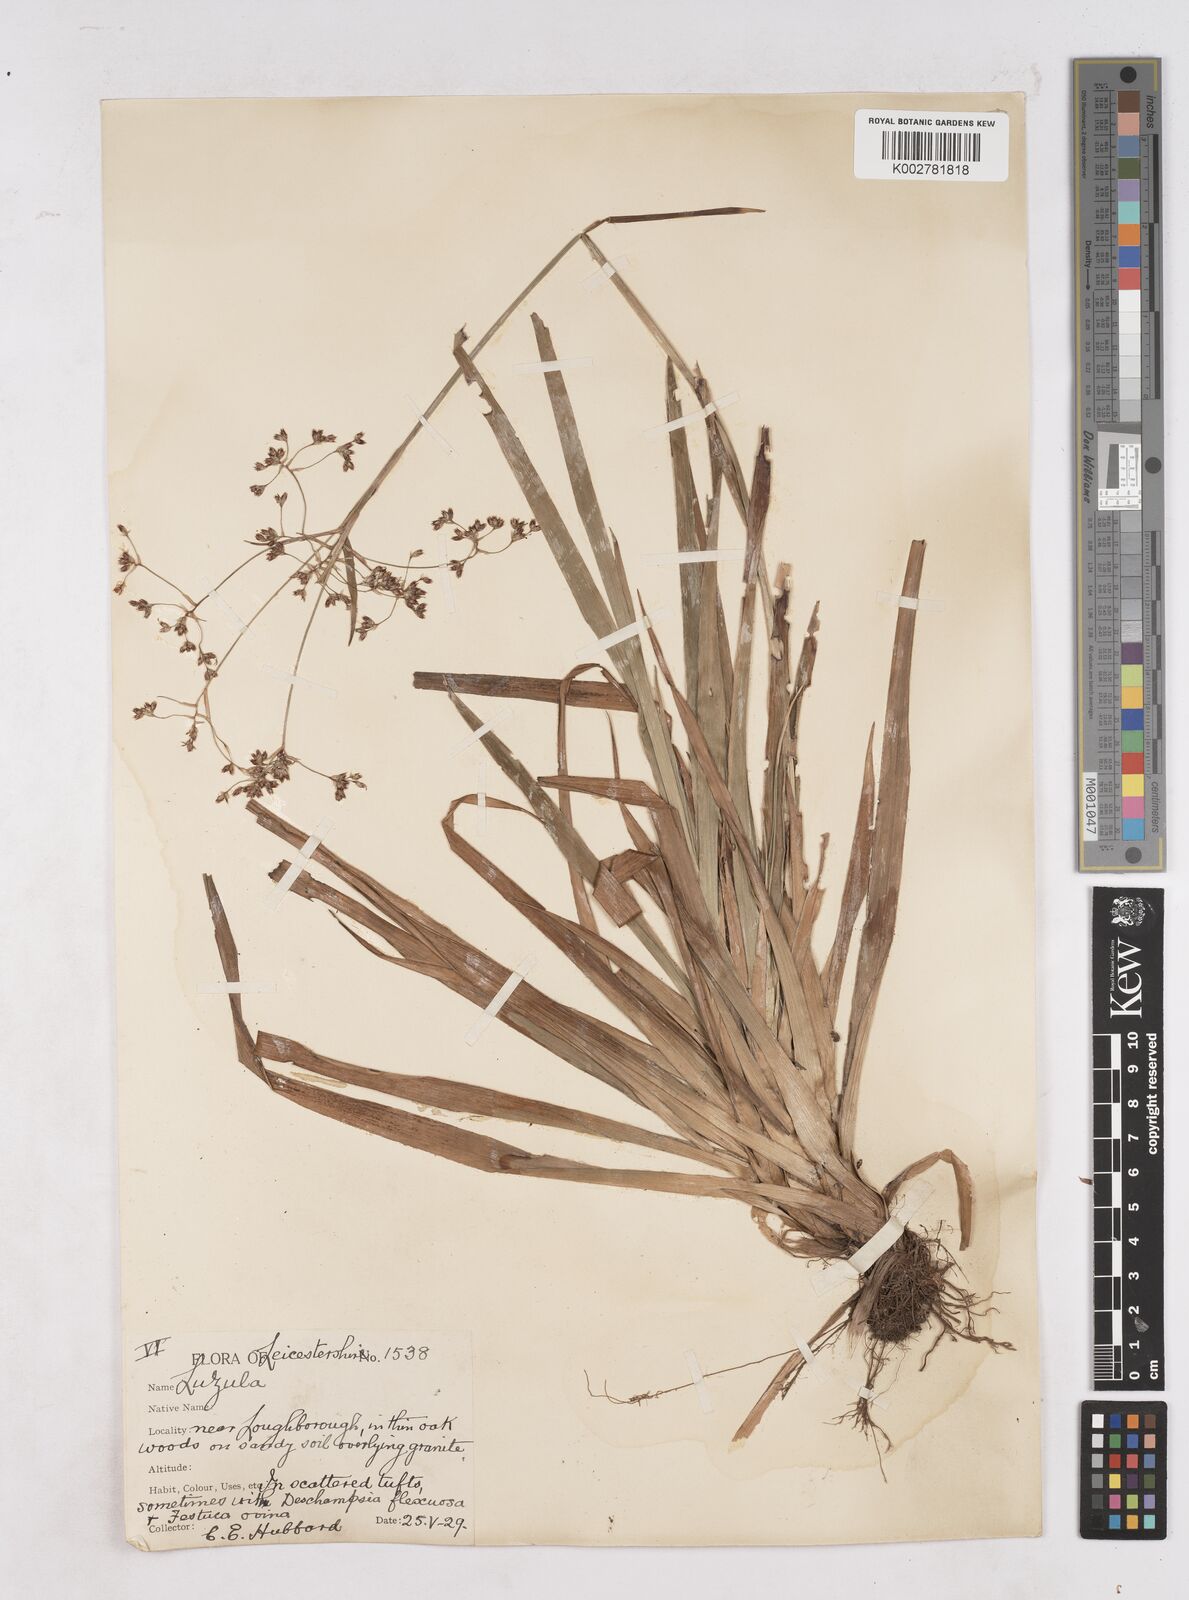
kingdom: Plantae
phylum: Tracheophyta
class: Liliopsida
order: Poales
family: Juncaceae
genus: Luzula
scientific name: Luzula sylvatica
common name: Great wood-rush
